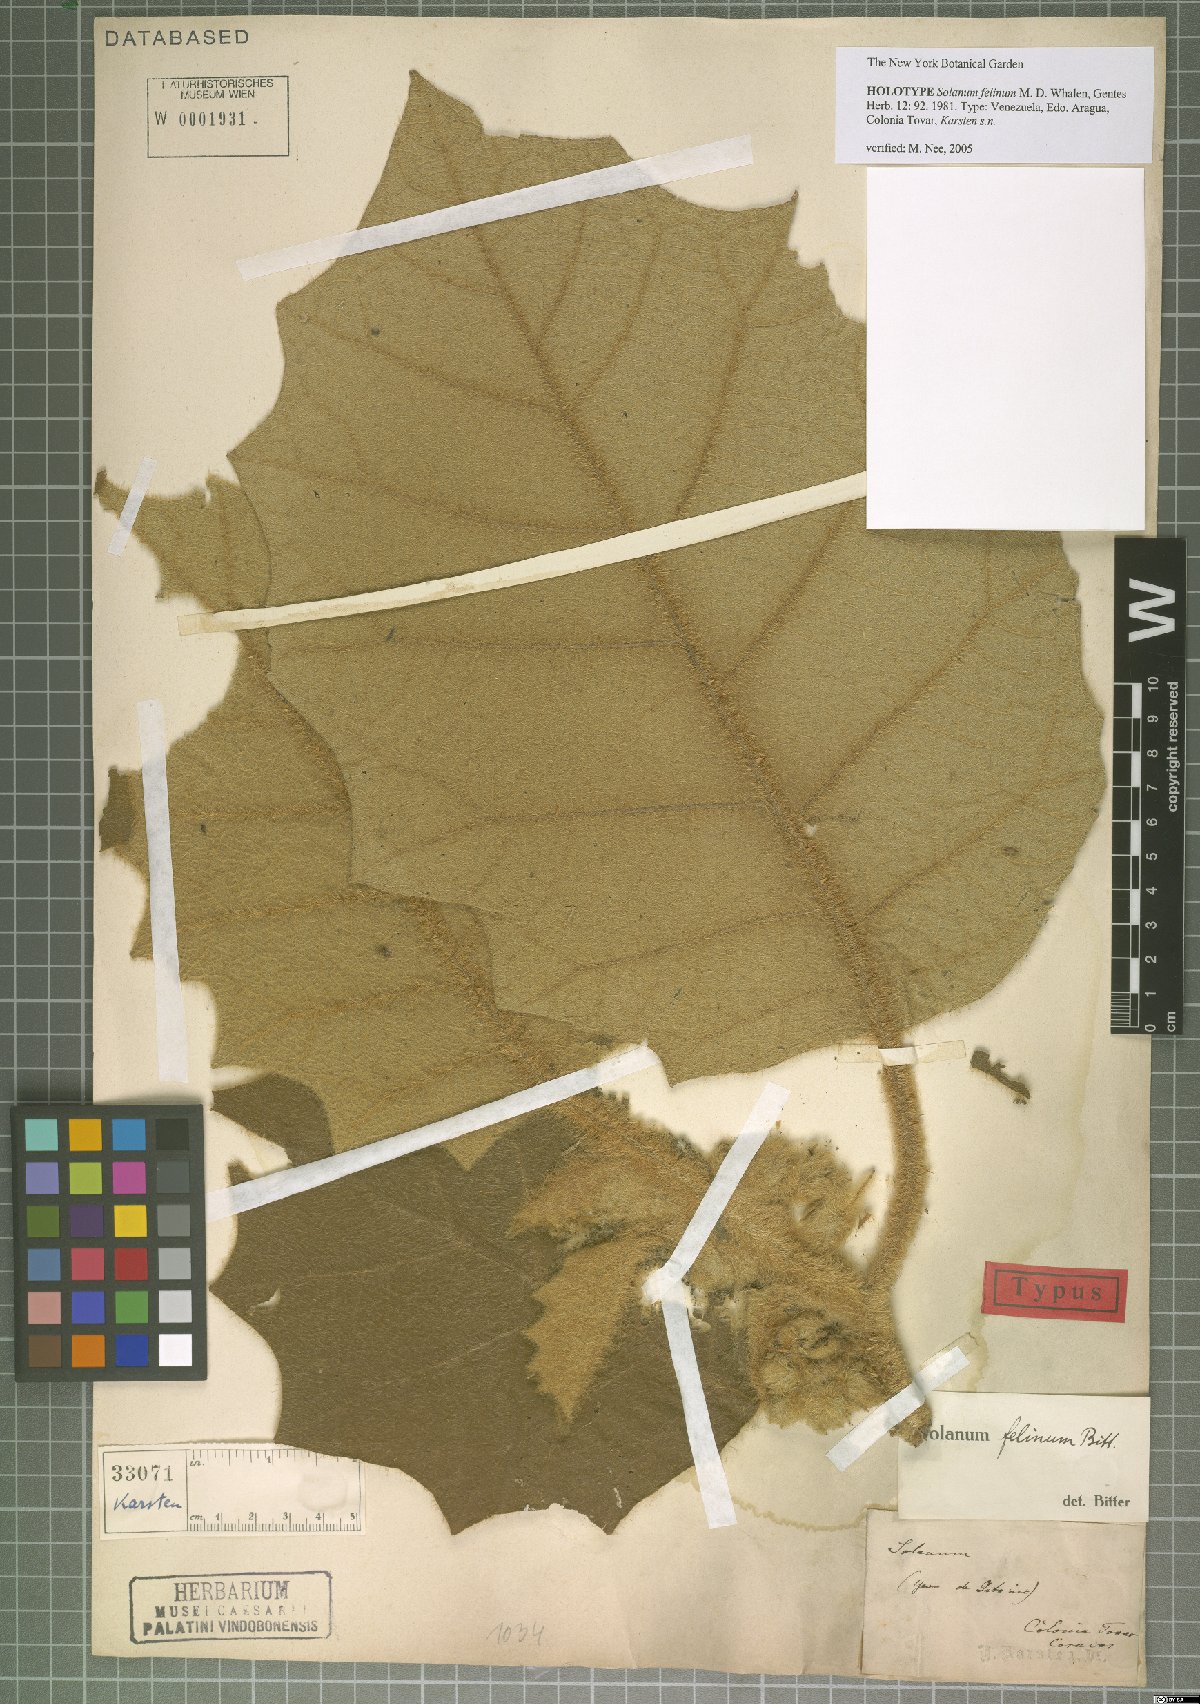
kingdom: Plantae
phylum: Tracheophyta
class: Magnoliopsida
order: Solanales
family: Solanaceae
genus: Solanum
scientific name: Solanum felinum
